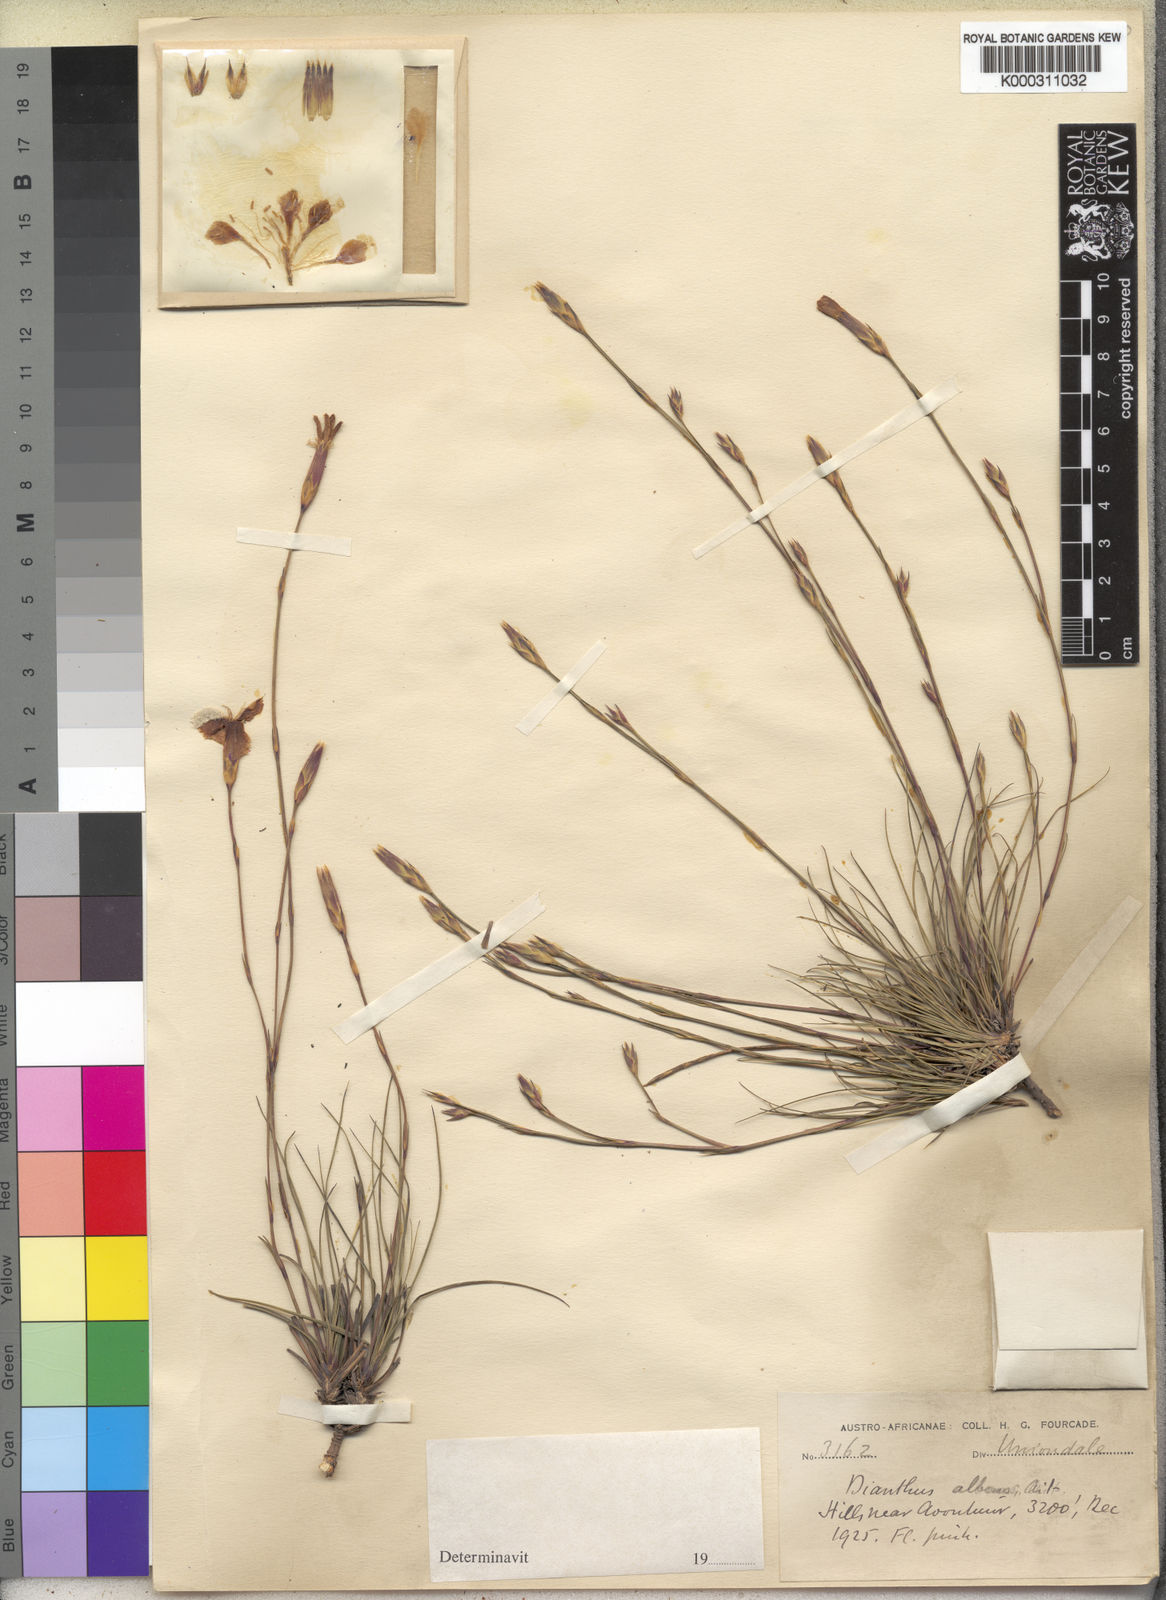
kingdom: Plantae
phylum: Tracheophyta
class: Magnoliopsida
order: Caryophyllales
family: Caryophyllaceae
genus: Dianthus
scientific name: Dianthus albens
